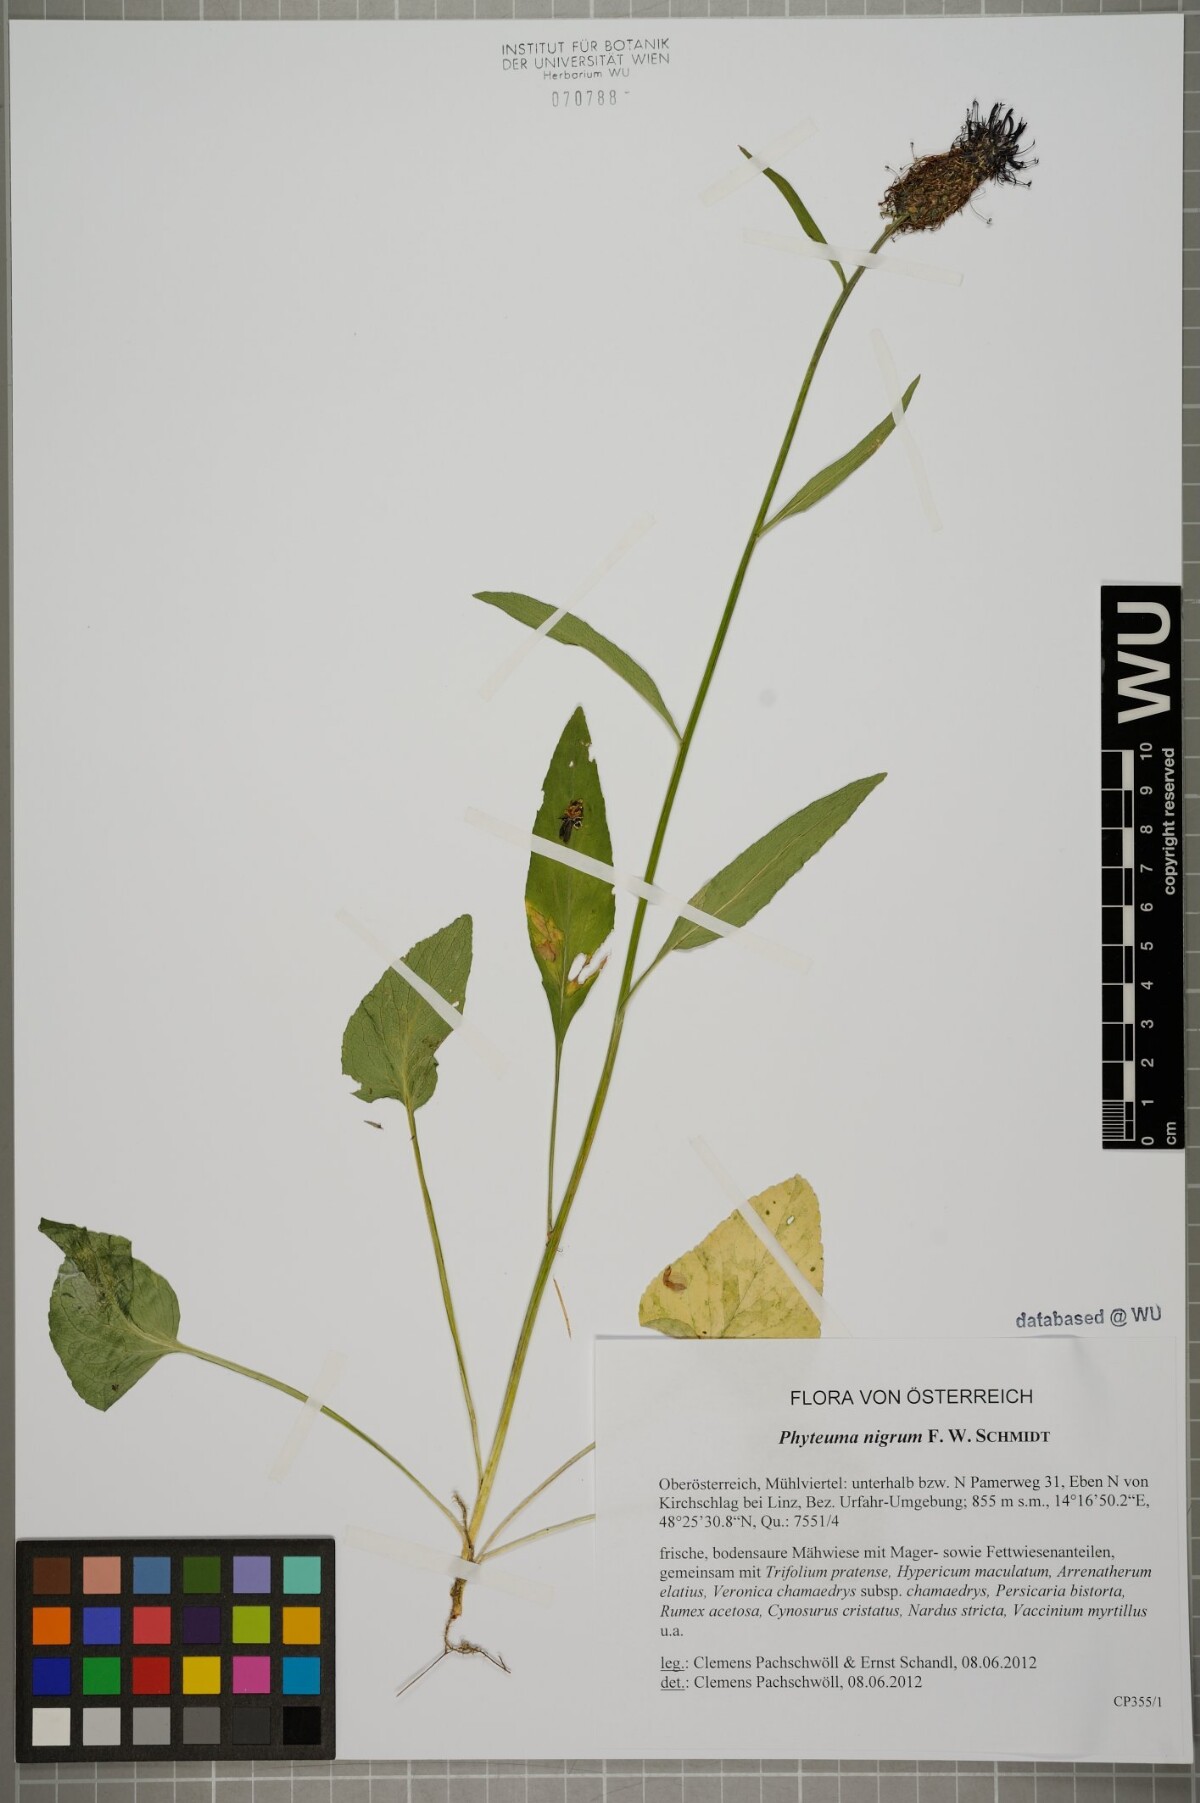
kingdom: Plantae
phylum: Tracheophyta
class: Magnoliopsida
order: Asterales
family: Campanulaceae
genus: Phyteuma
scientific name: Phyteuma nigrum
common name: Black rampion
